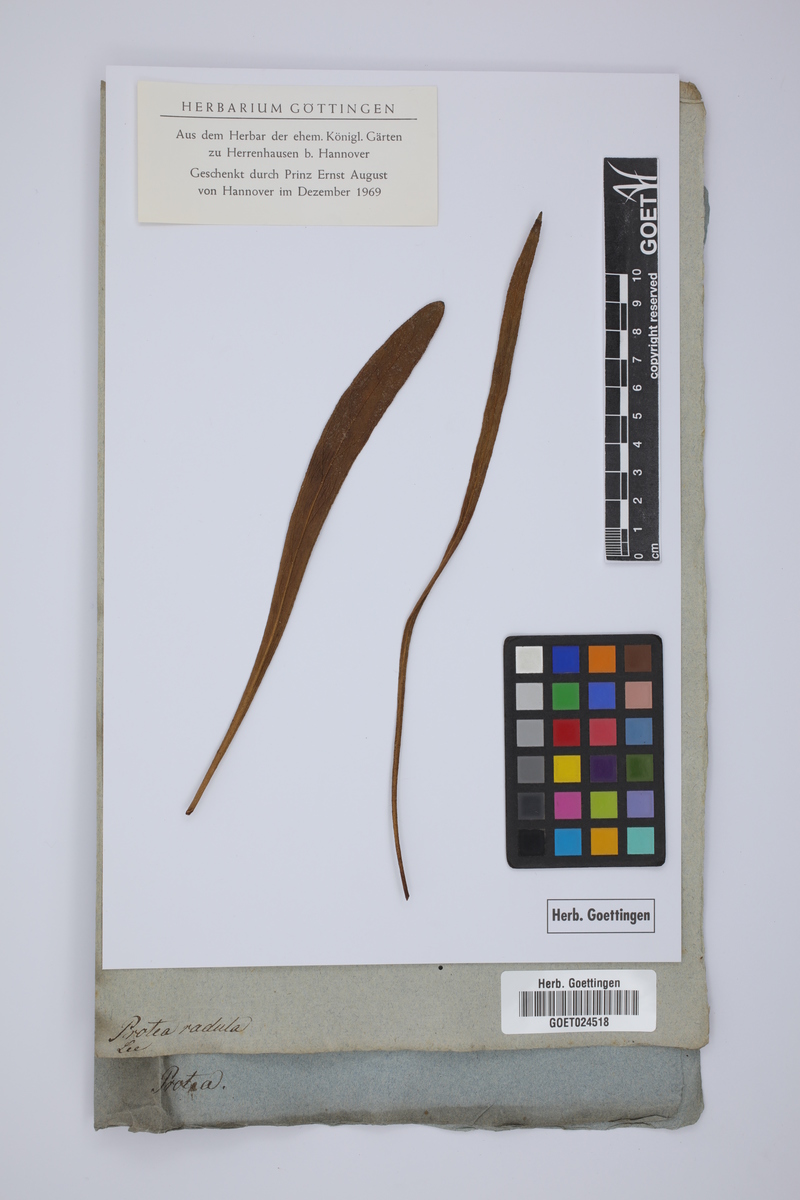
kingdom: Plantae
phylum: Tracheophyta
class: Magnoliopsida
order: Proteales
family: Proteaceae
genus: Protea
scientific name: Protea radula
